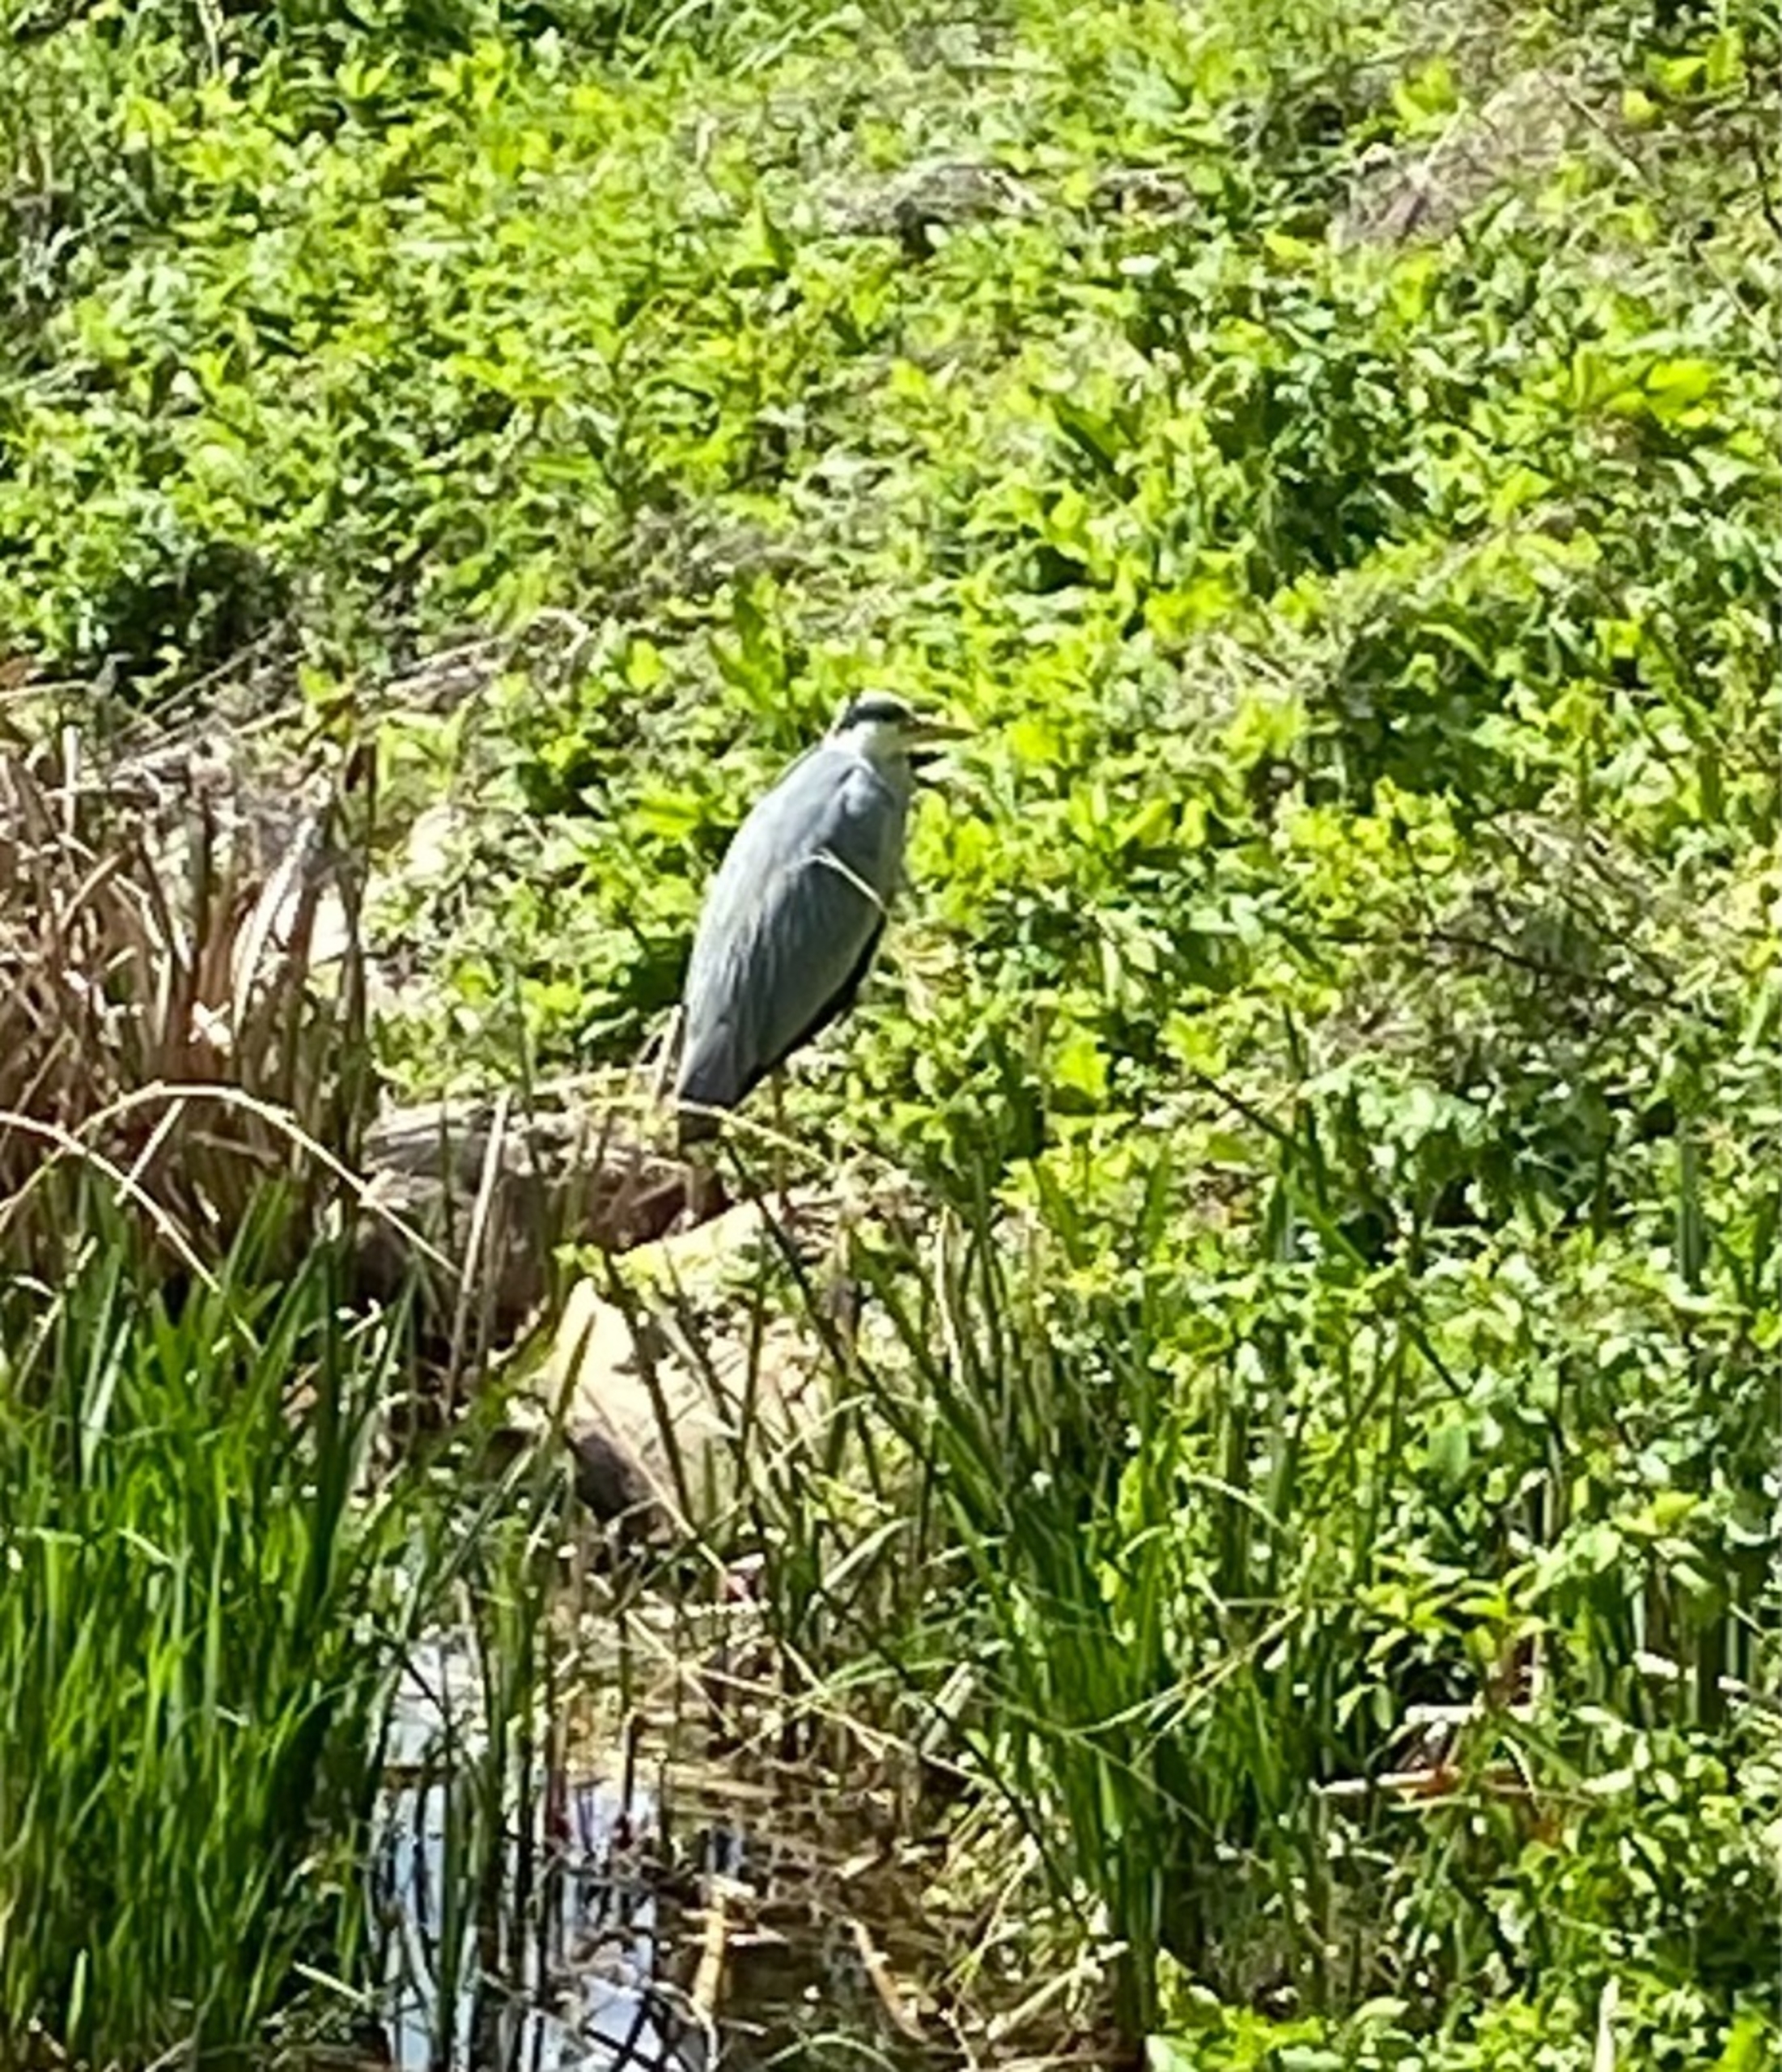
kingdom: Animalia
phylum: Chordata
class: Aves
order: Pelecaniformes
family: Ardeidae
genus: Ardea
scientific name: Ardea cinerea
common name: Fiskehejre
